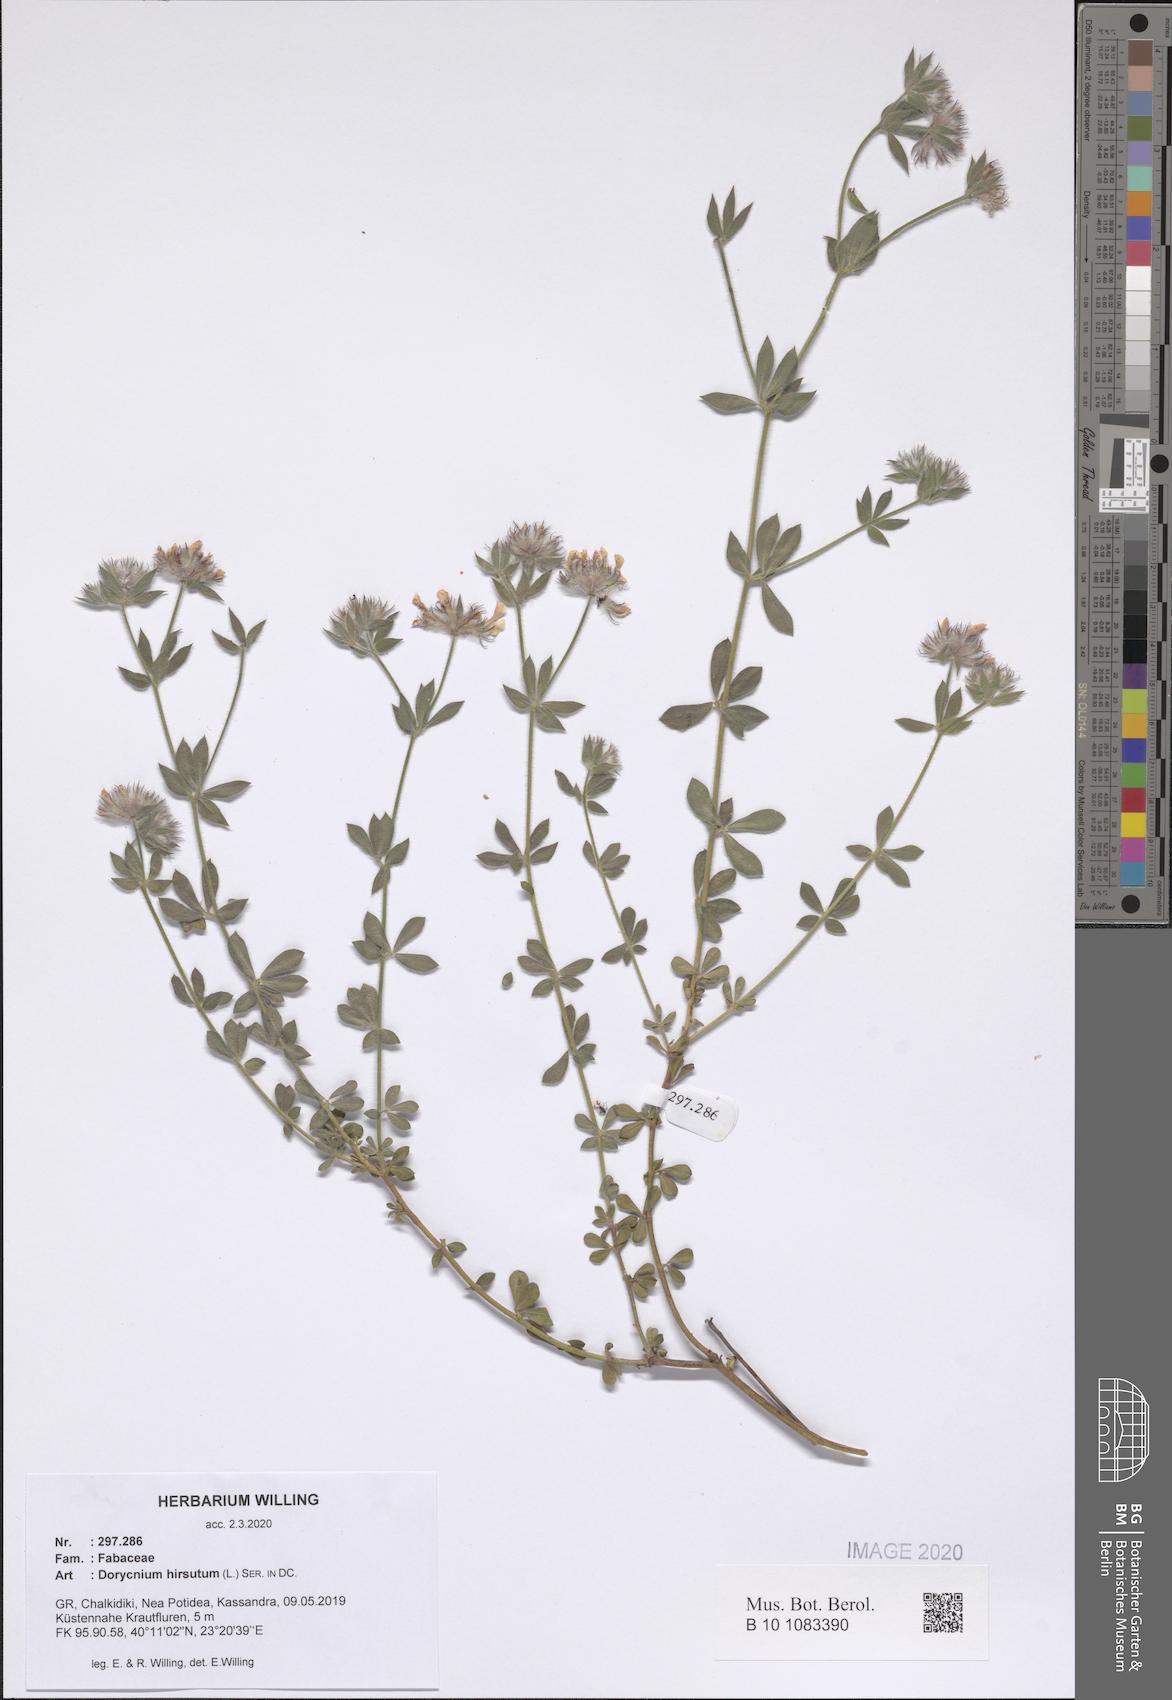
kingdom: Plantae
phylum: Tracheophyta
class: Magnoliopsida
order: Fabales
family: Fabaceae
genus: Lotus
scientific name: Lotus hirsutus
